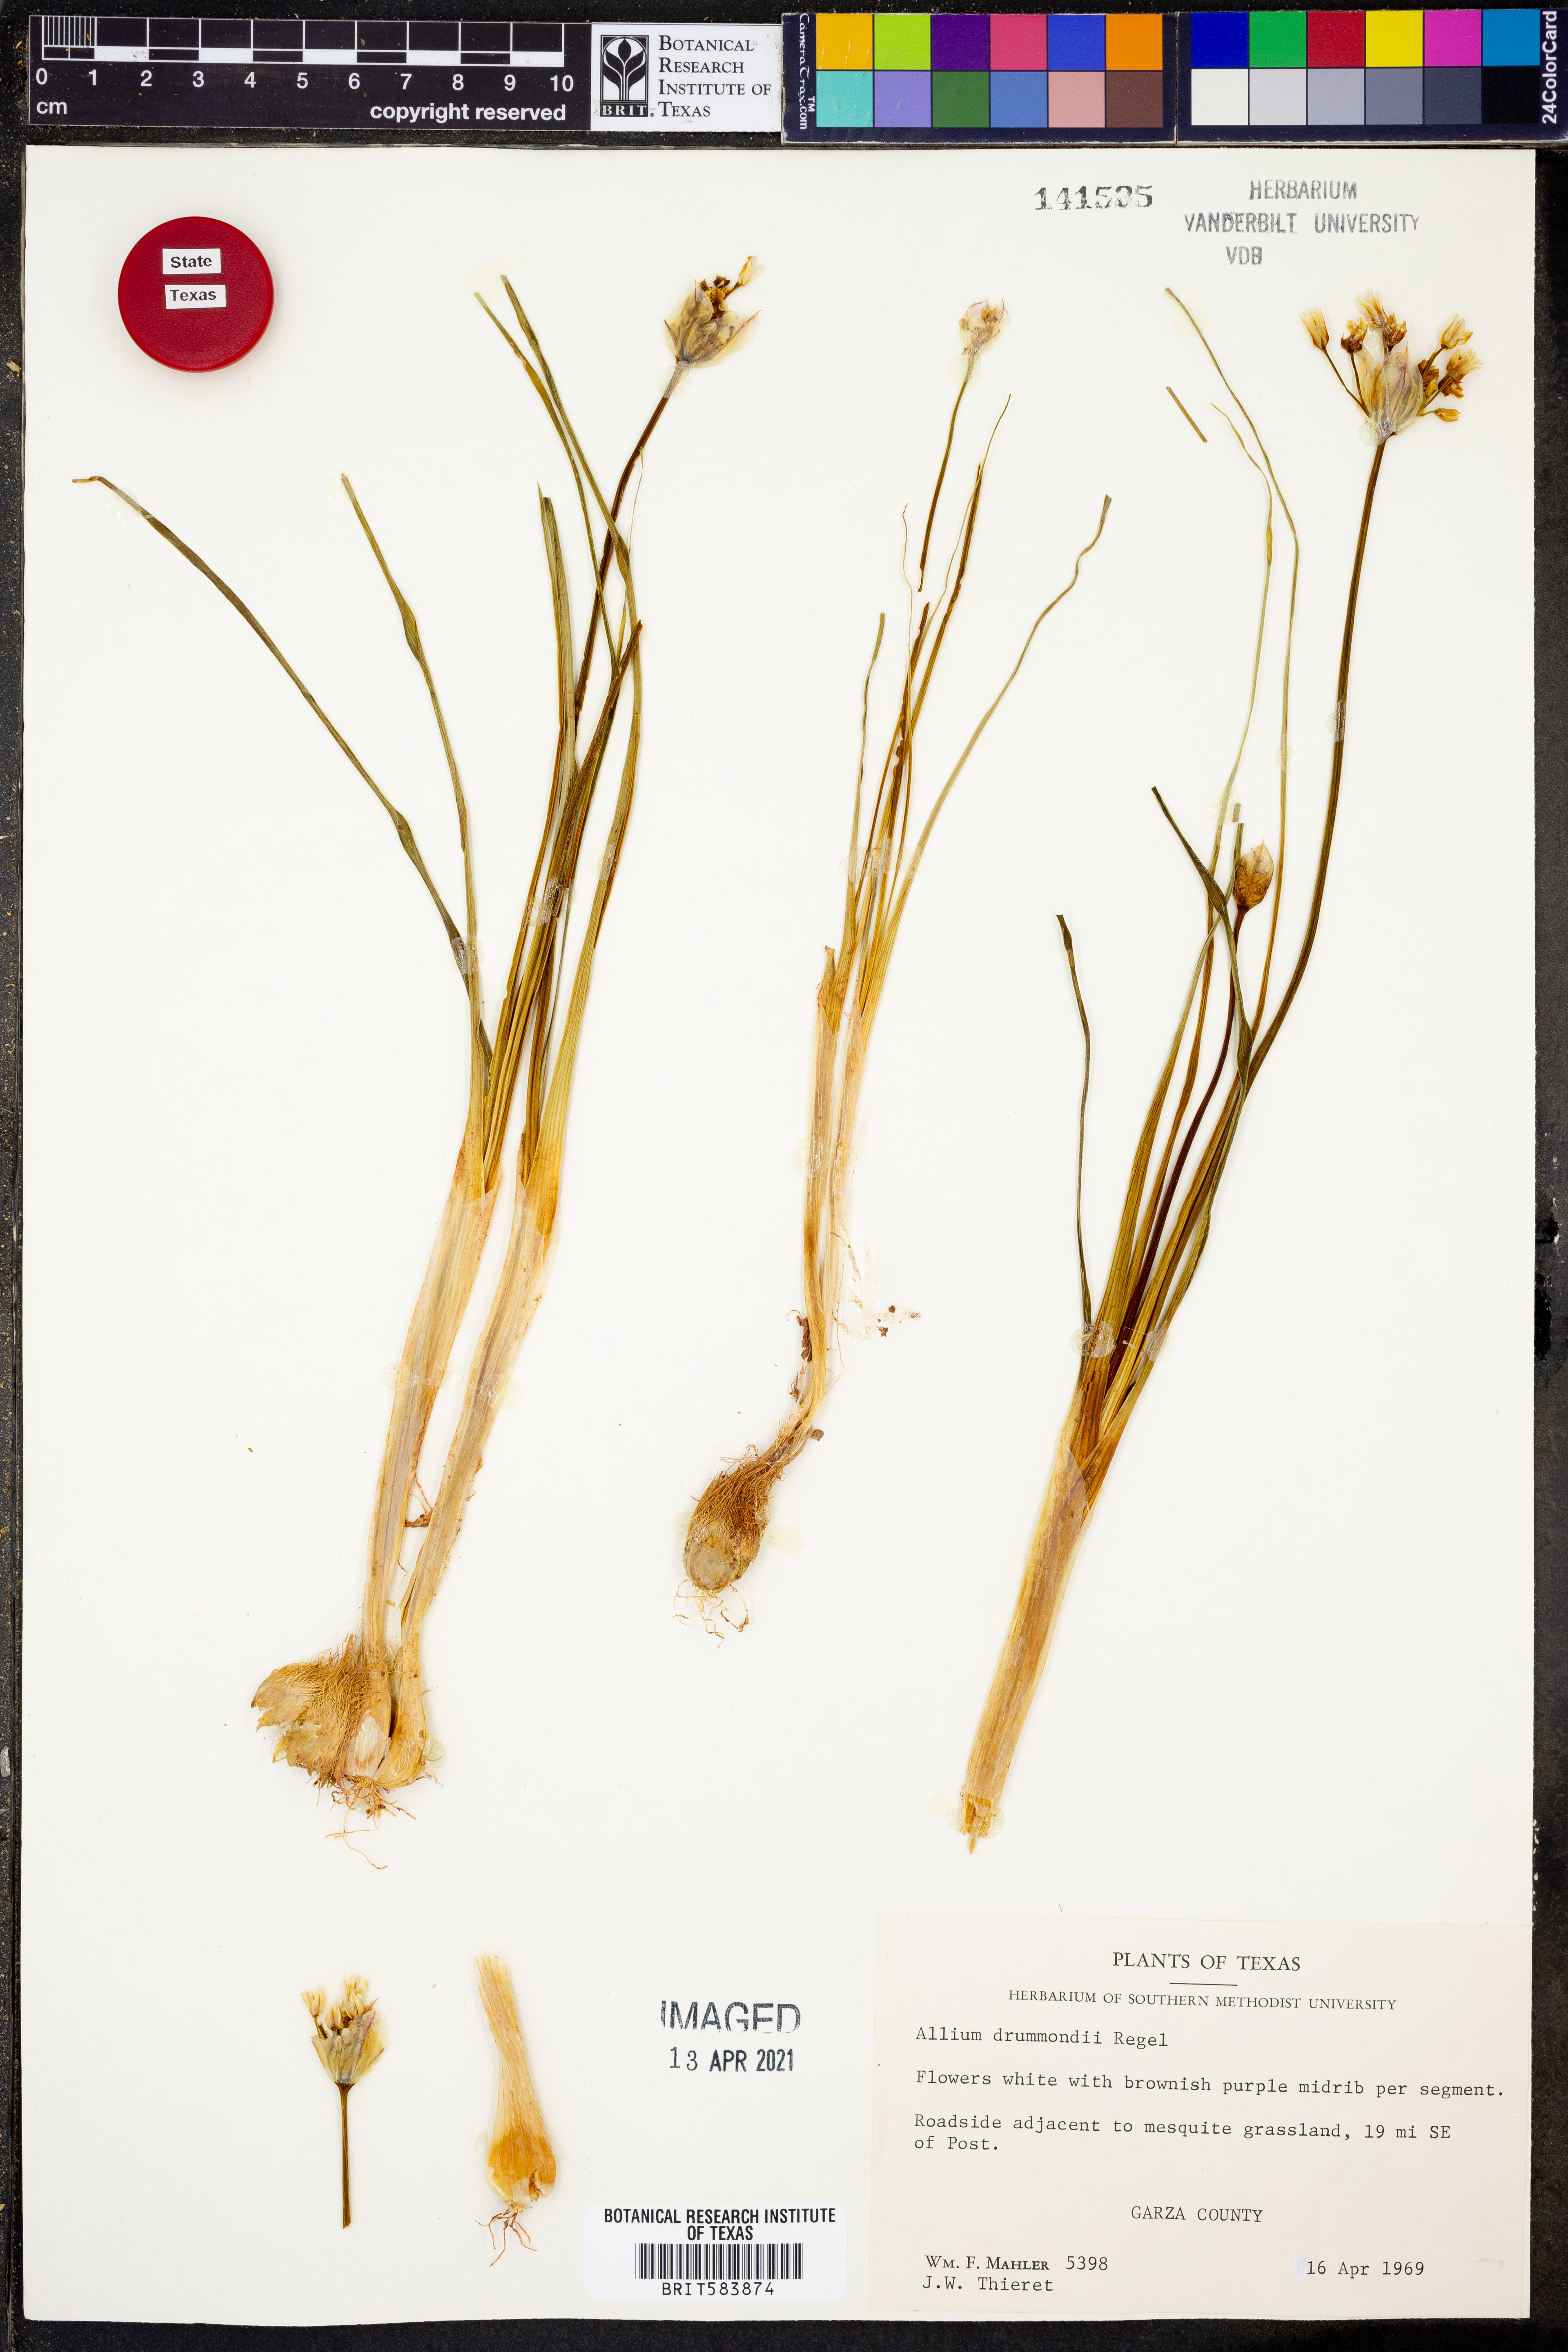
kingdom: Plantae
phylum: Tracheophyta
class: Liliopsida
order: Asparagales
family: Amaryllidaceae
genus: Allium
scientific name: Allium drummondii
